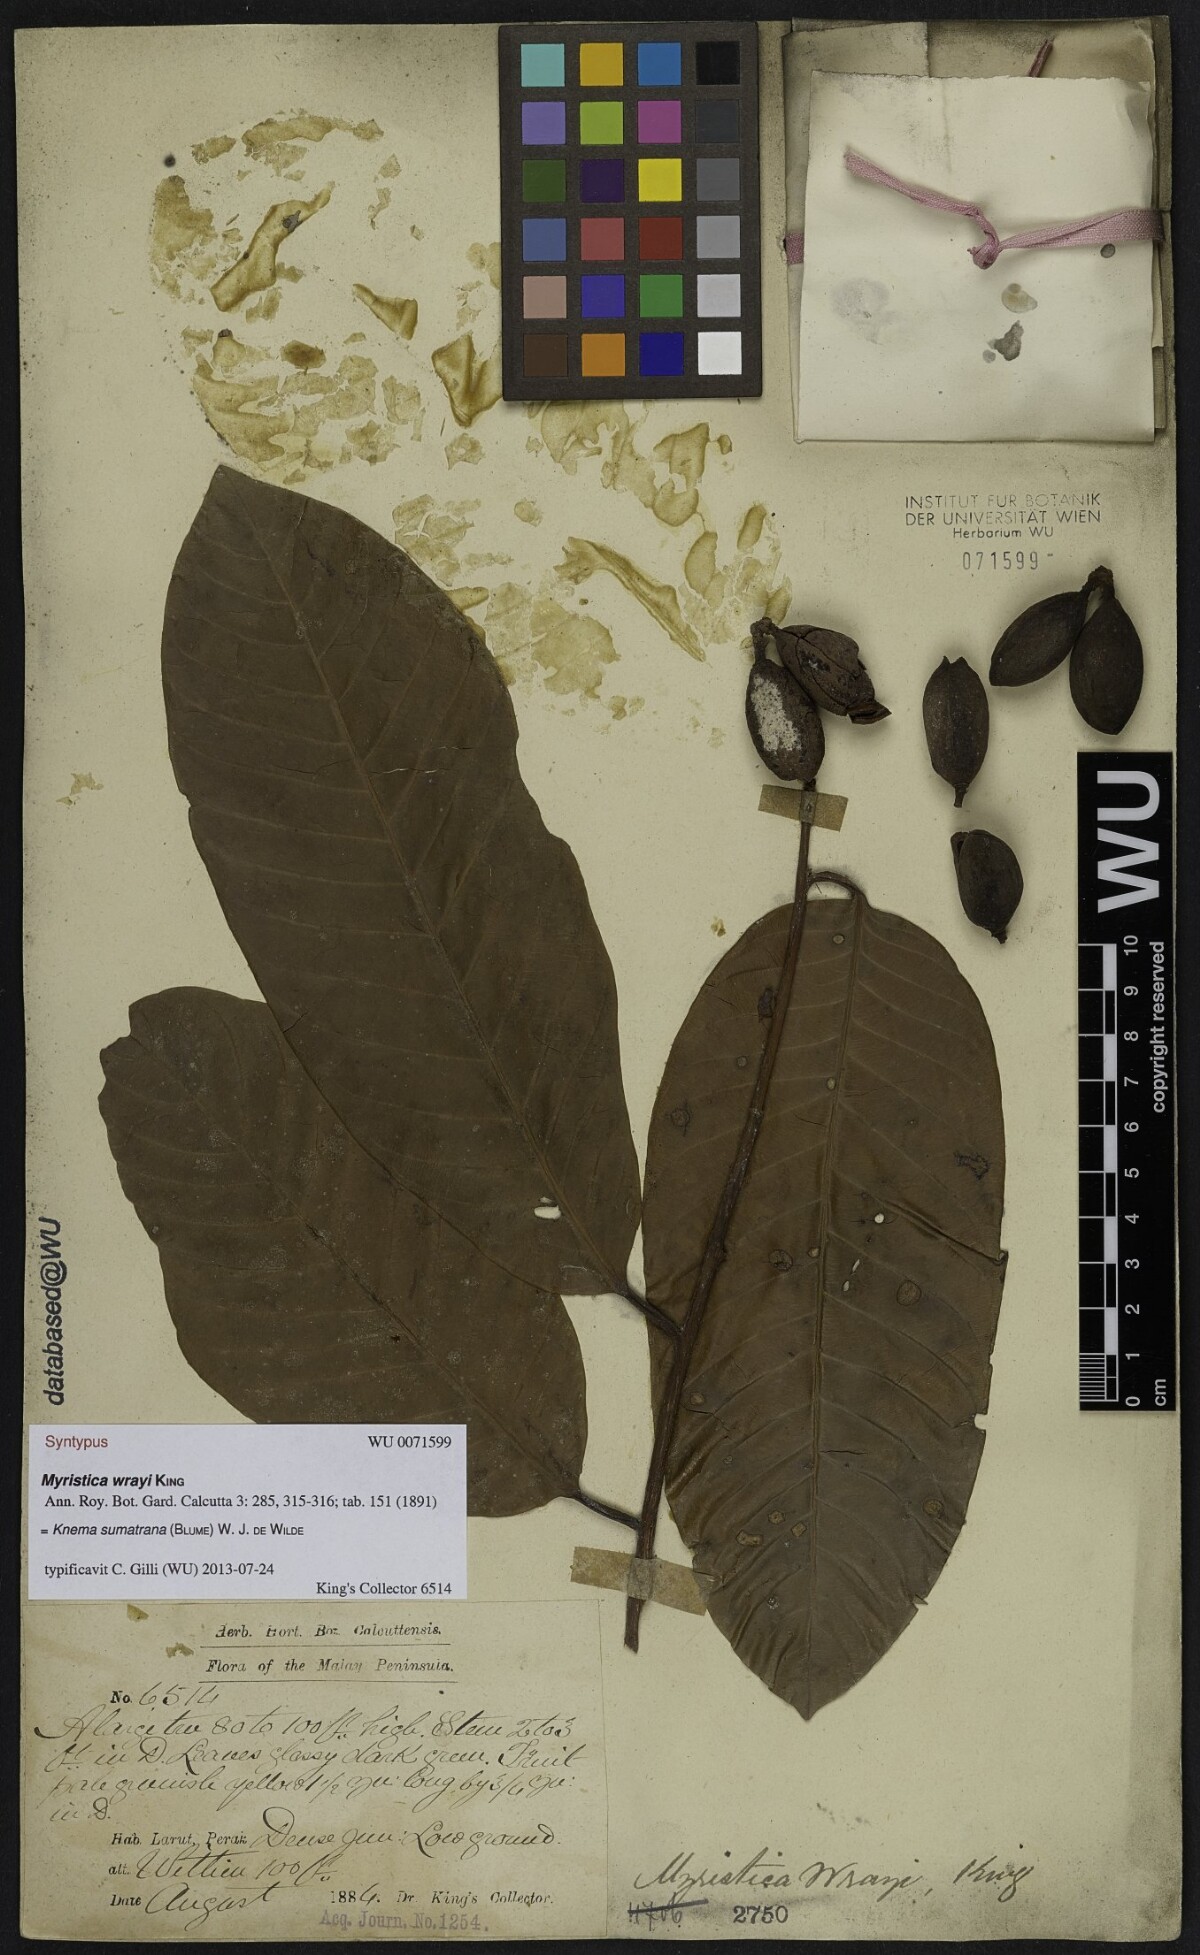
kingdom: Plantae
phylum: Tracheophyta
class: Magnoliopsida
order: Magnoliales
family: Myristicaceae
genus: Knema
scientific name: Knema sumatrana
